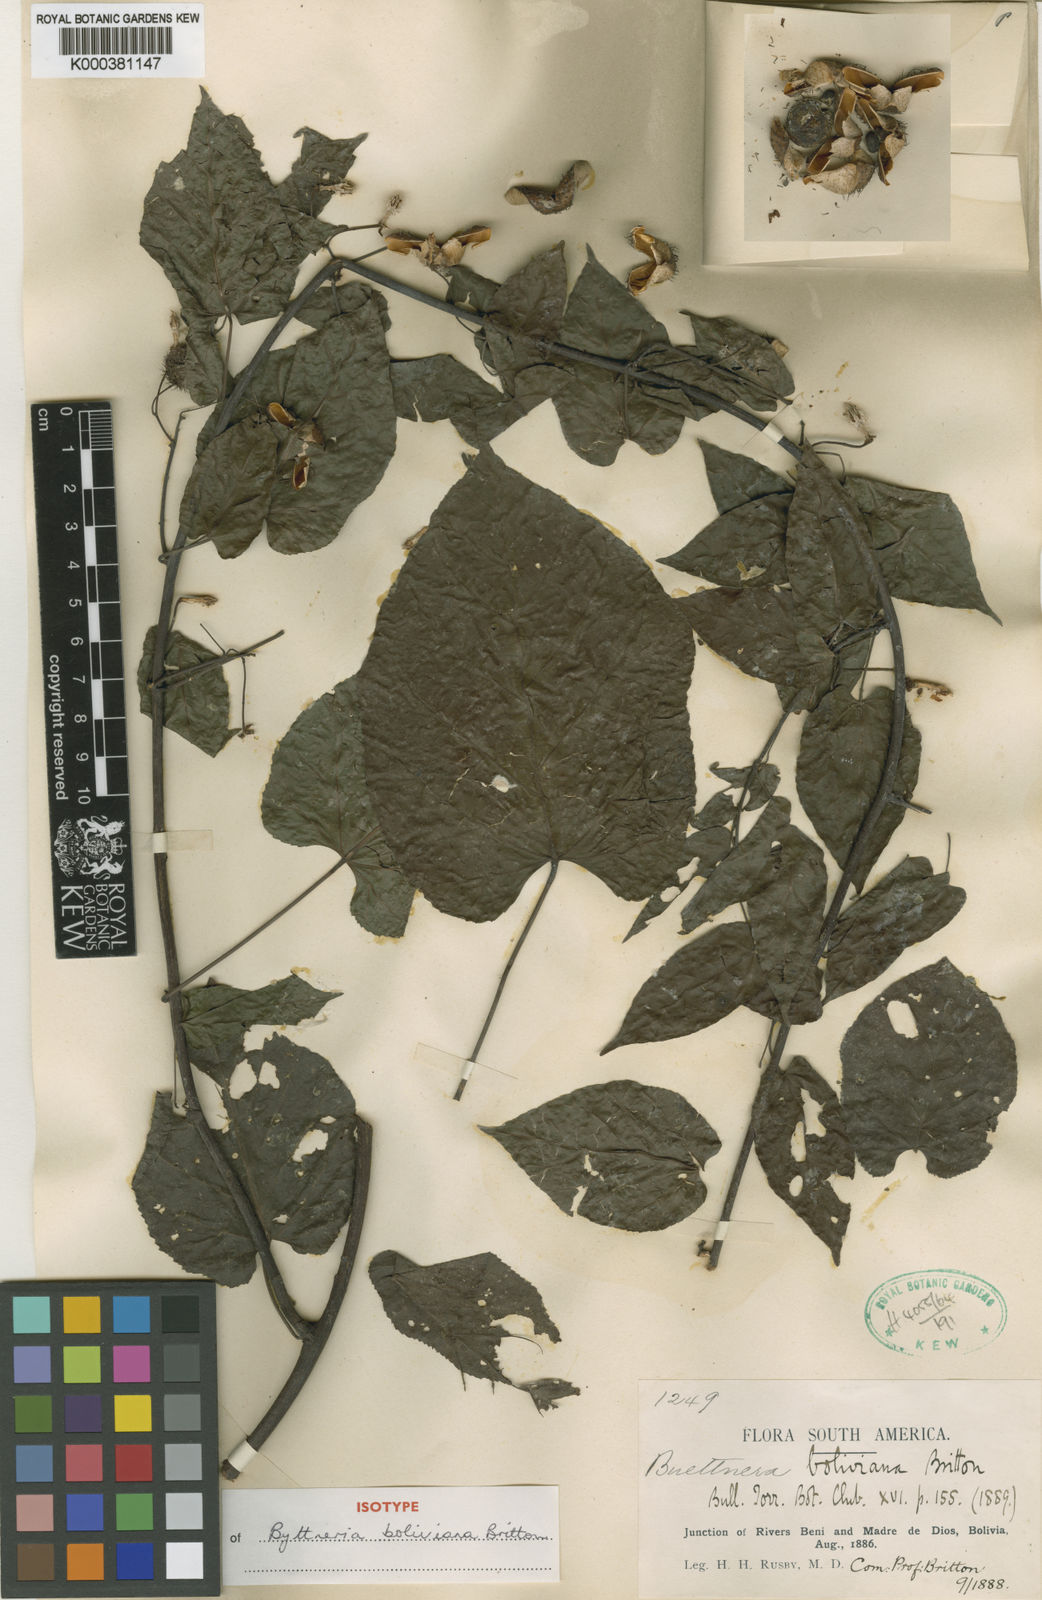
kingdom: Plantae
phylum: Tracheophyta
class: Magnoliopsida
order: Malvales
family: Malvaceae
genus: Byttneria
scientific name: Byttneria benensis
